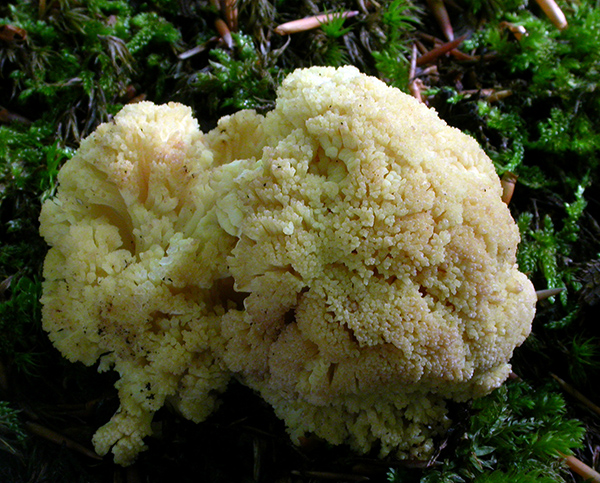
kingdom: Fungi
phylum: Basidiomycota
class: Agaricomycetes
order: Gomphales
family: Gomphaceae
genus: Ramaria
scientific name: Ramaria sanguinea
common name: blodplettet koralsvamp
